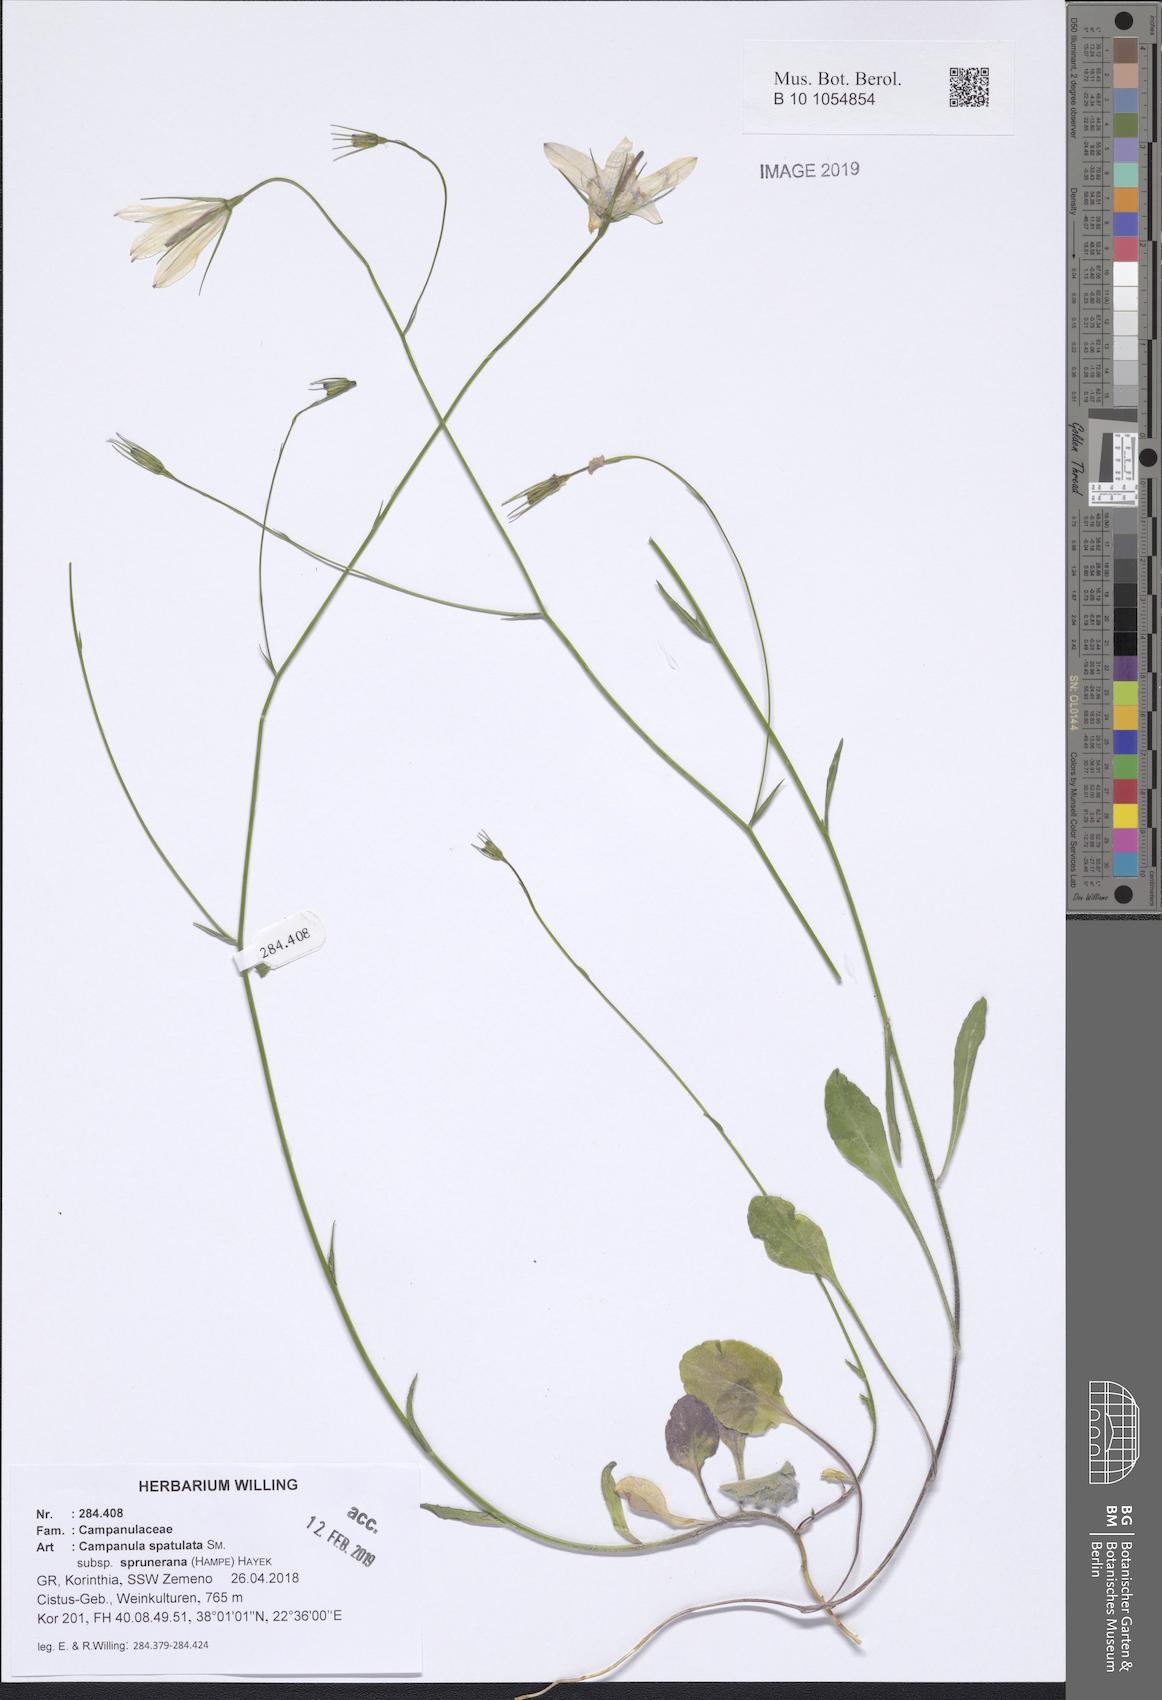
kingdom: Plantae
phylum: Tracheophyta
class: Magnoliopsida
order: Asterales
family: Campanulaceae
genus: Campanula
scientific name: Campanula spatulata
